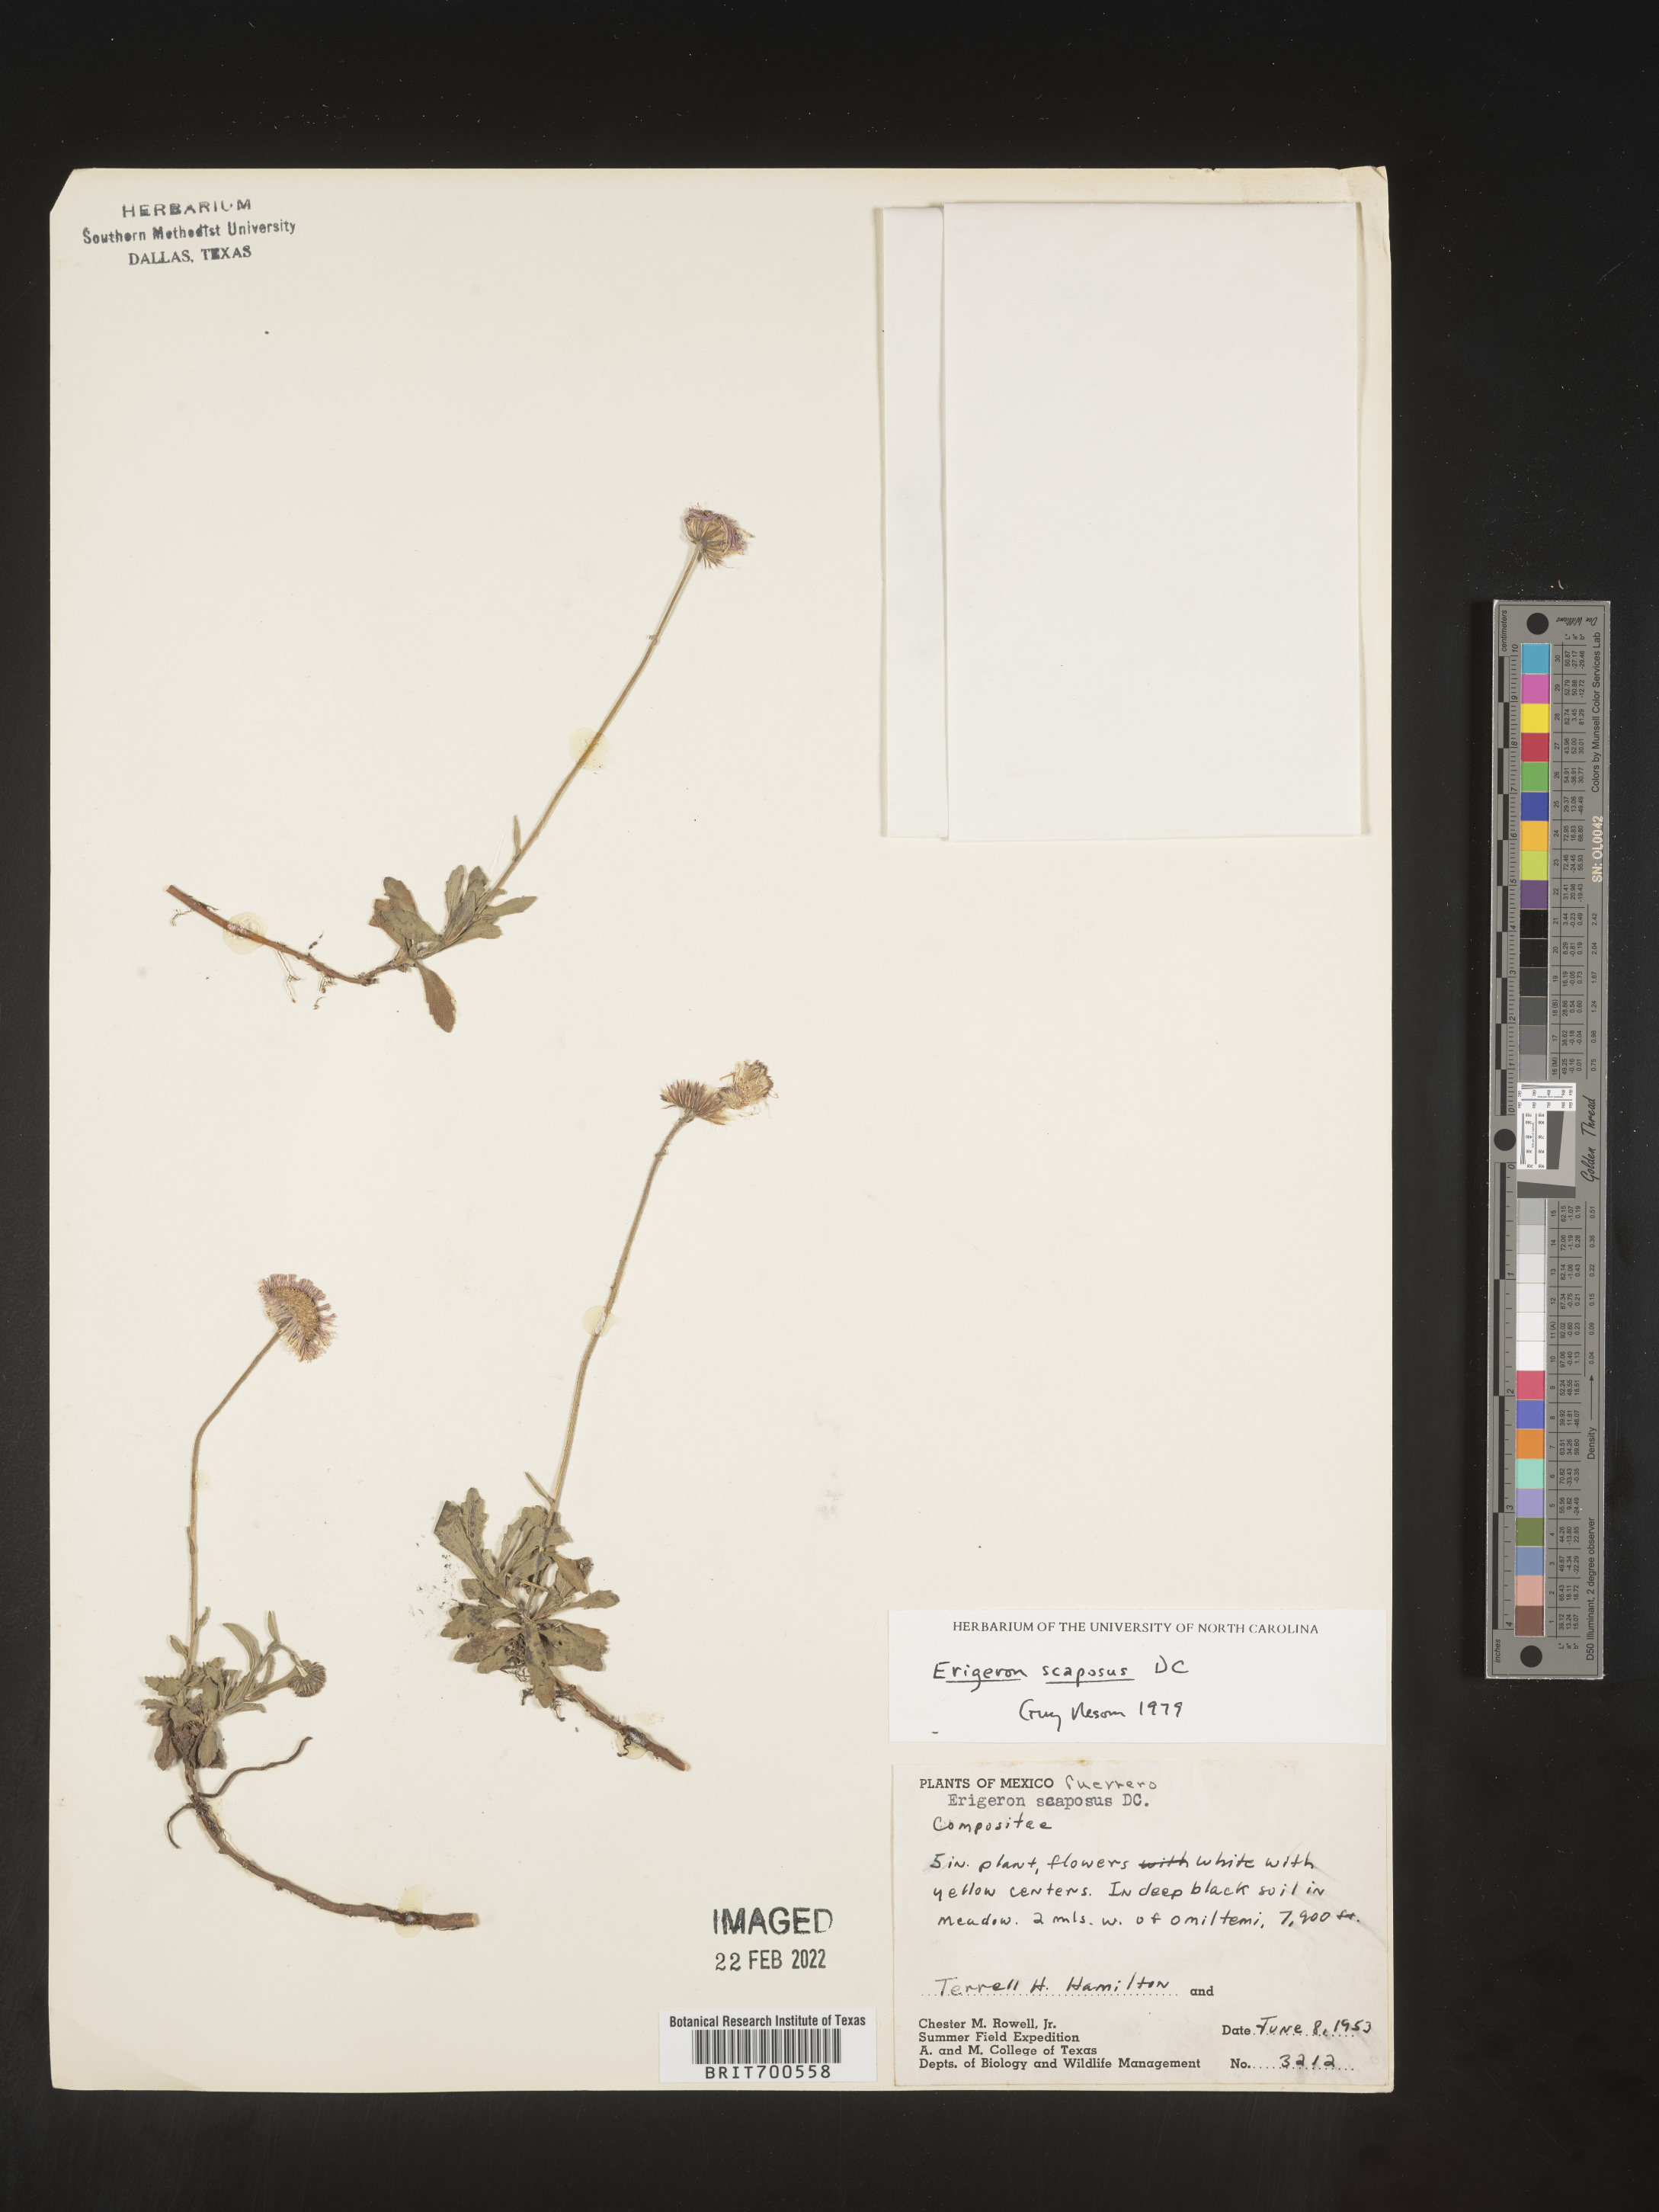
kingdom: Plantae
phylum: Tracheophyta
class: Magnoliopsida
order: Asterales
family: Asteraceae
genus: Erigeron
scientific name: Erigeron longipes
